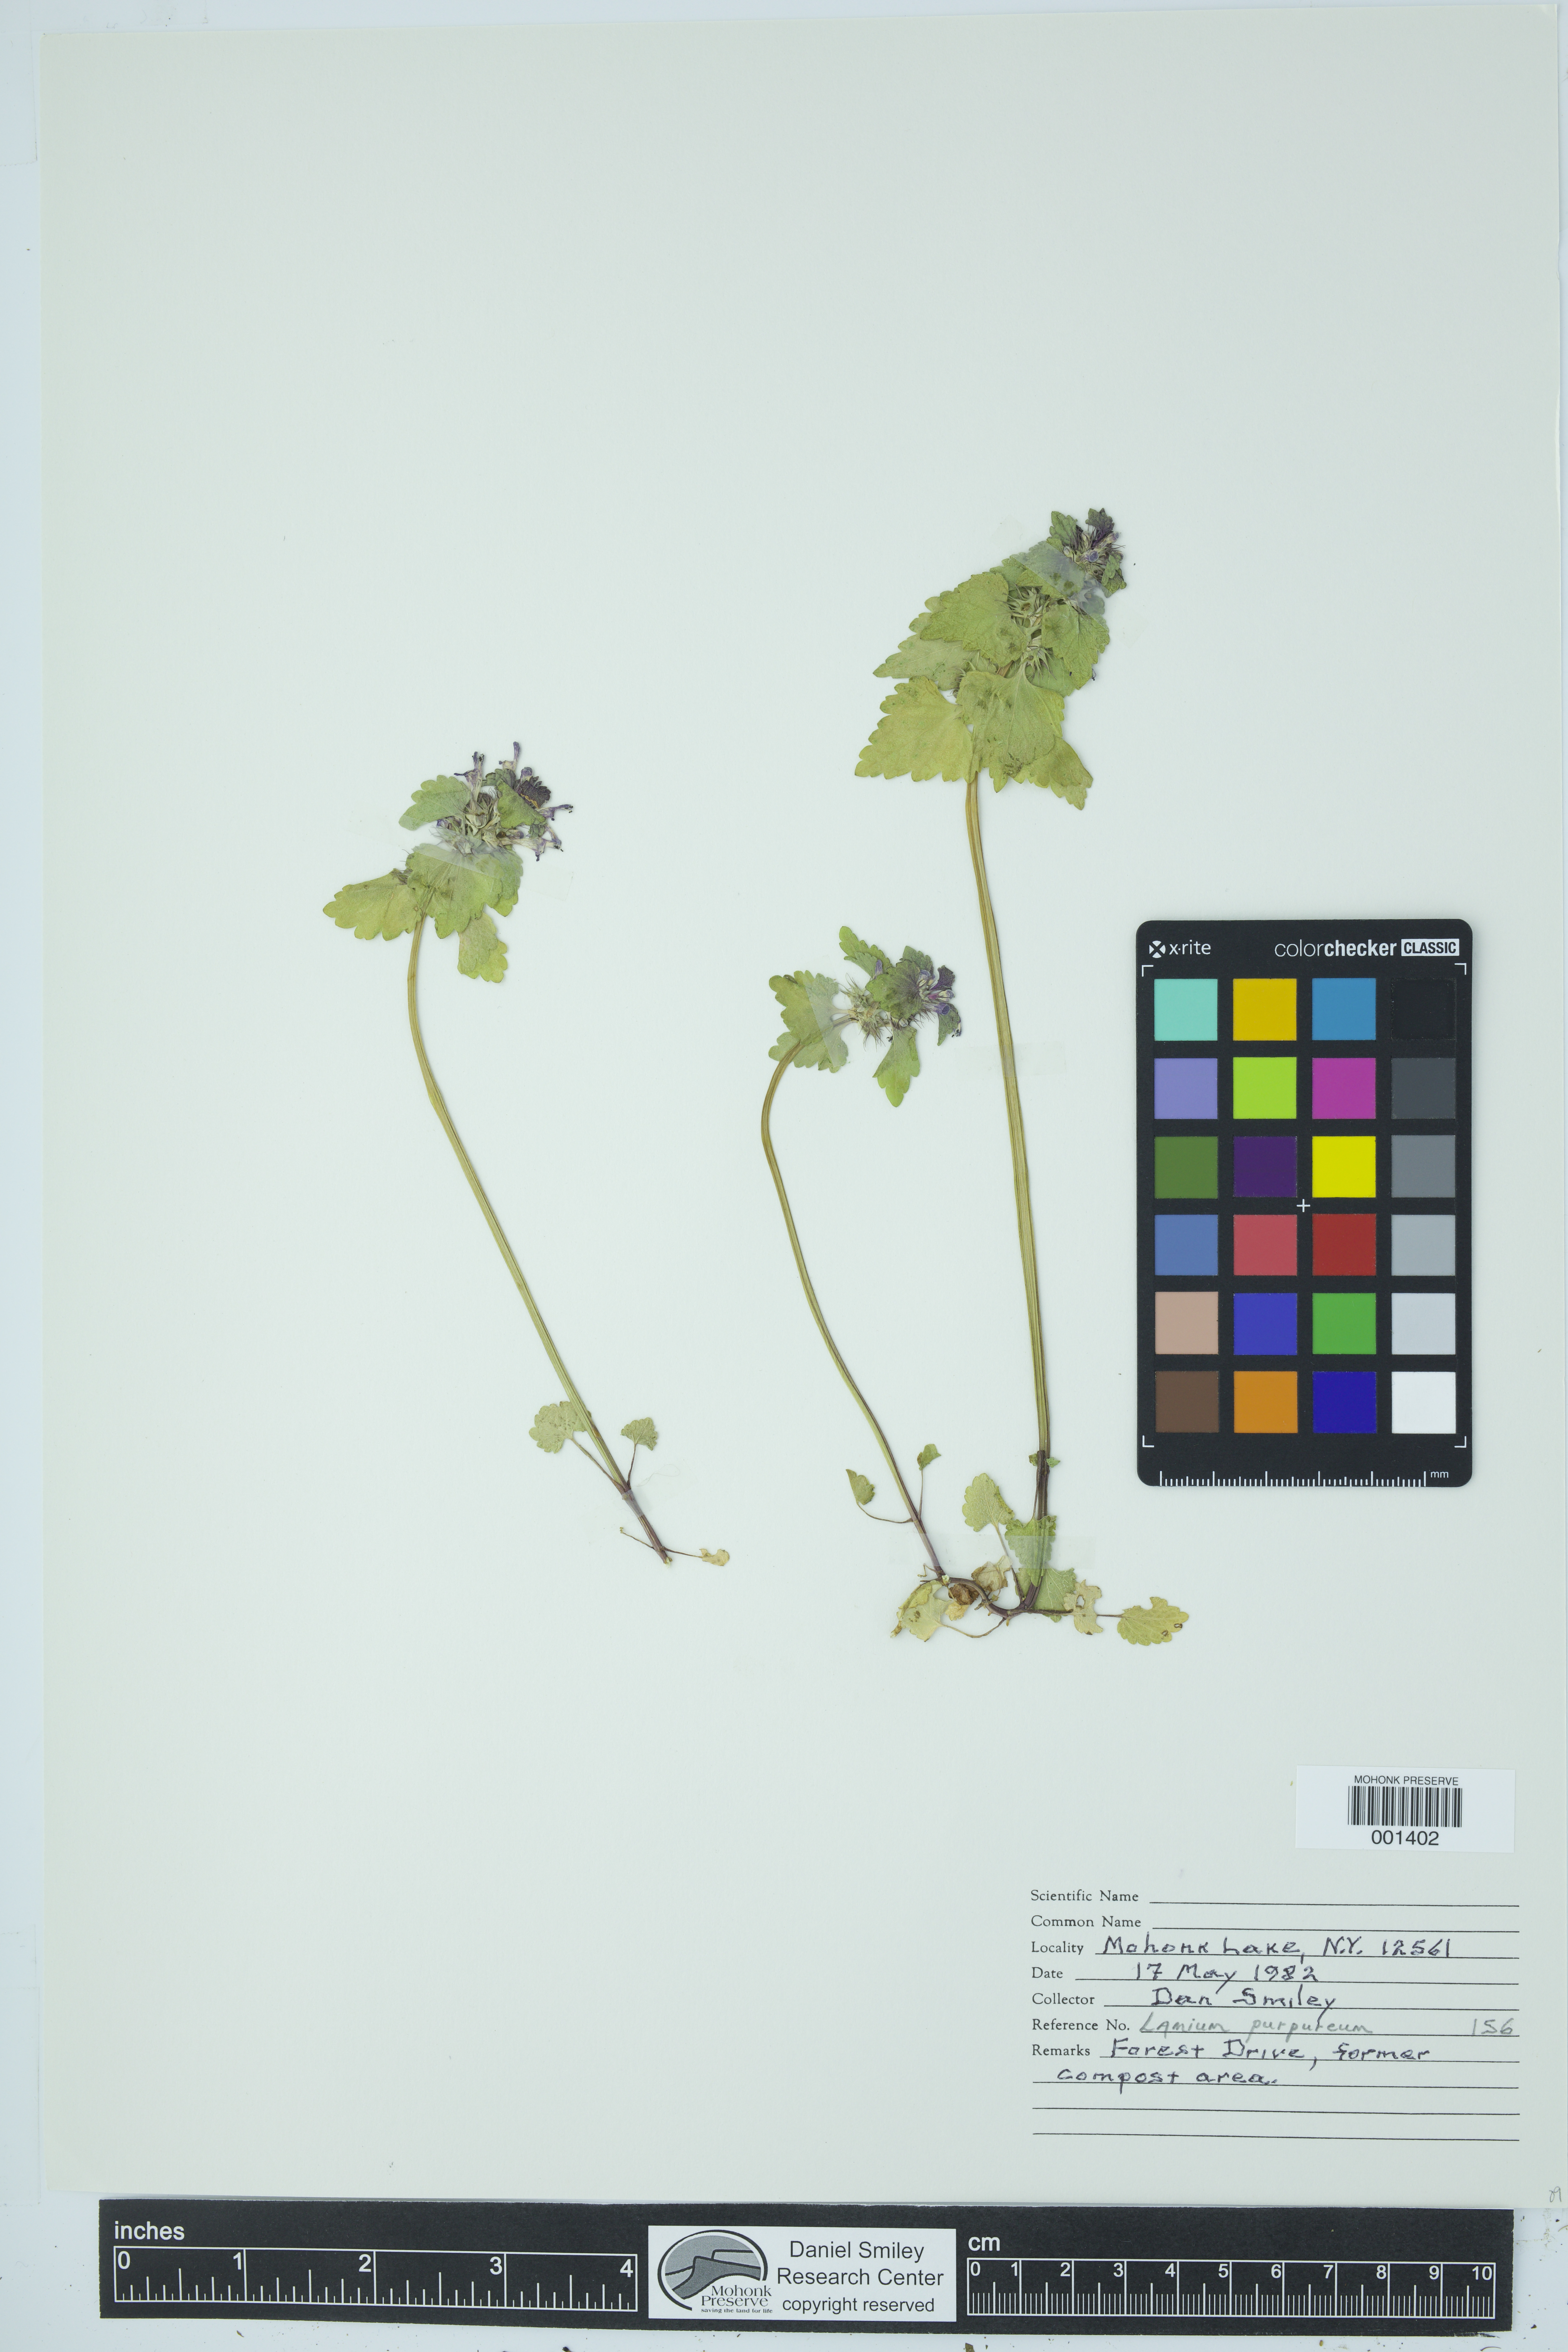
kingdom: Plantae
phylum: Tracheophyta
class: Magnoliopsida
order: Lamiales
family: Lamiaceae
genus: Lamium
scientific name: Lamium purpureum
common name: Red dead-nettle
